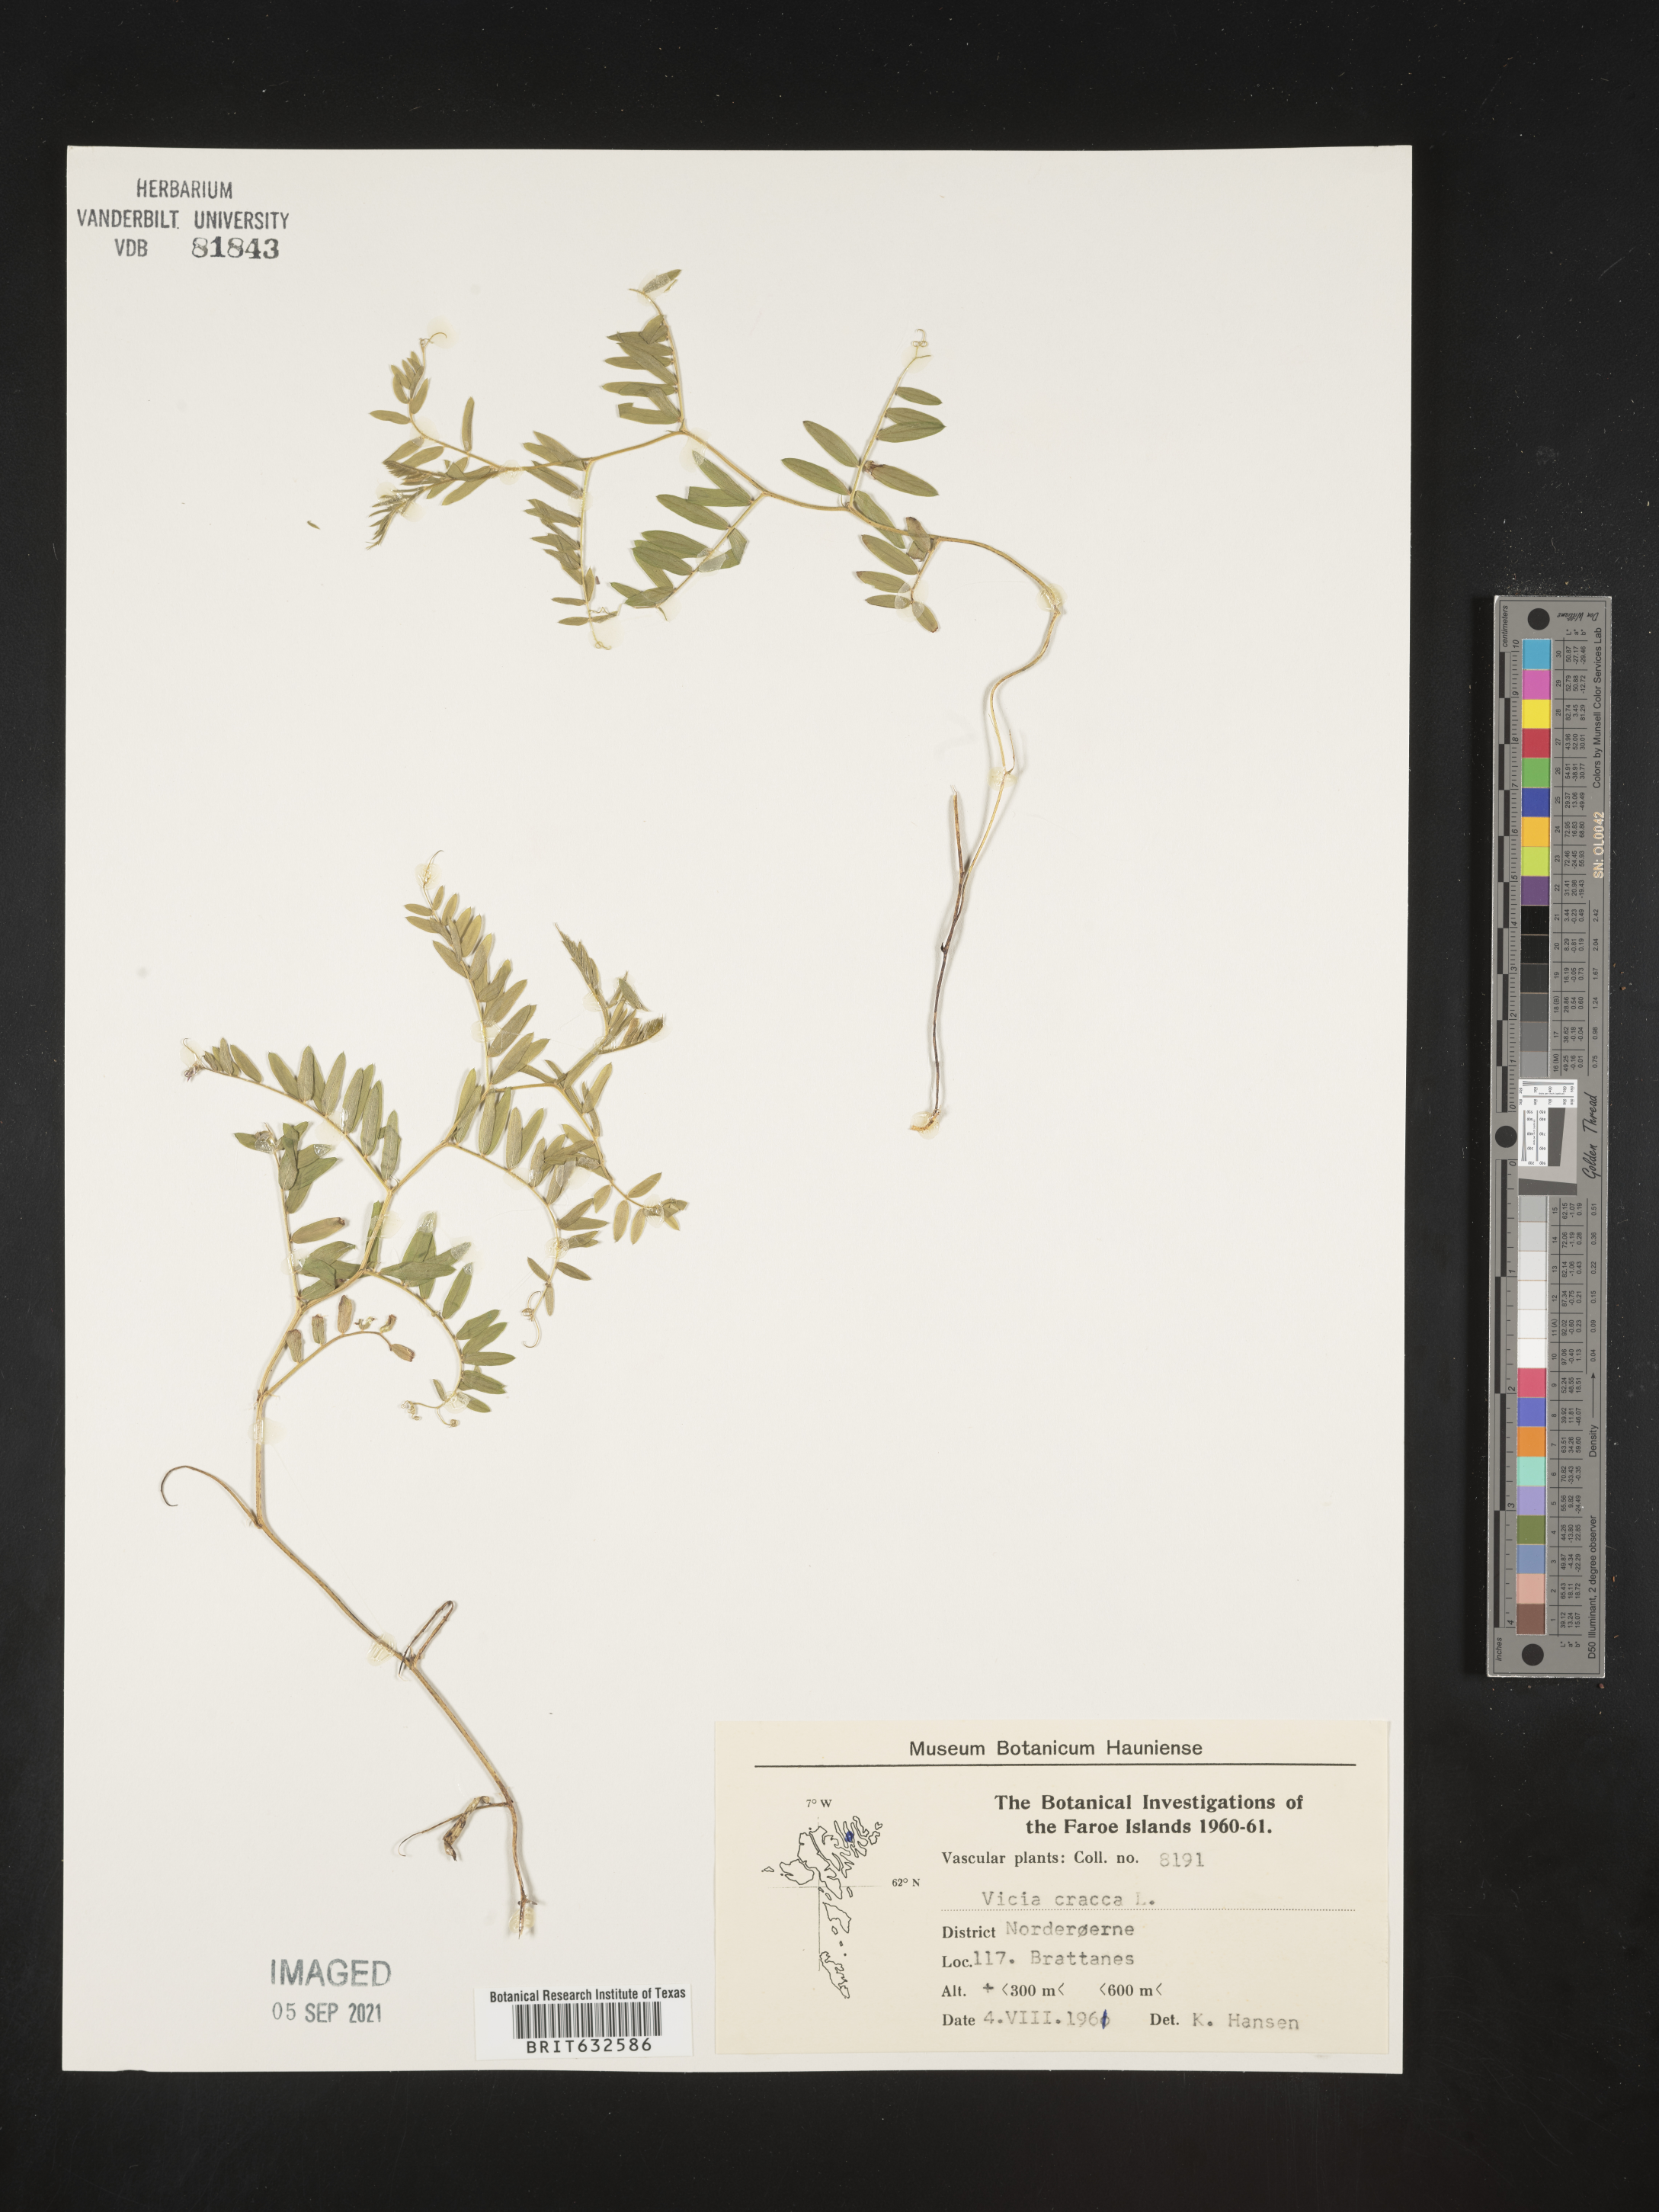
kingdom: Plantae
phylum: Tracheophyta
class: Magnoliopsida
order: Fabales
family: Fabaceae
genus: Vicia
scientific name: Vicia
